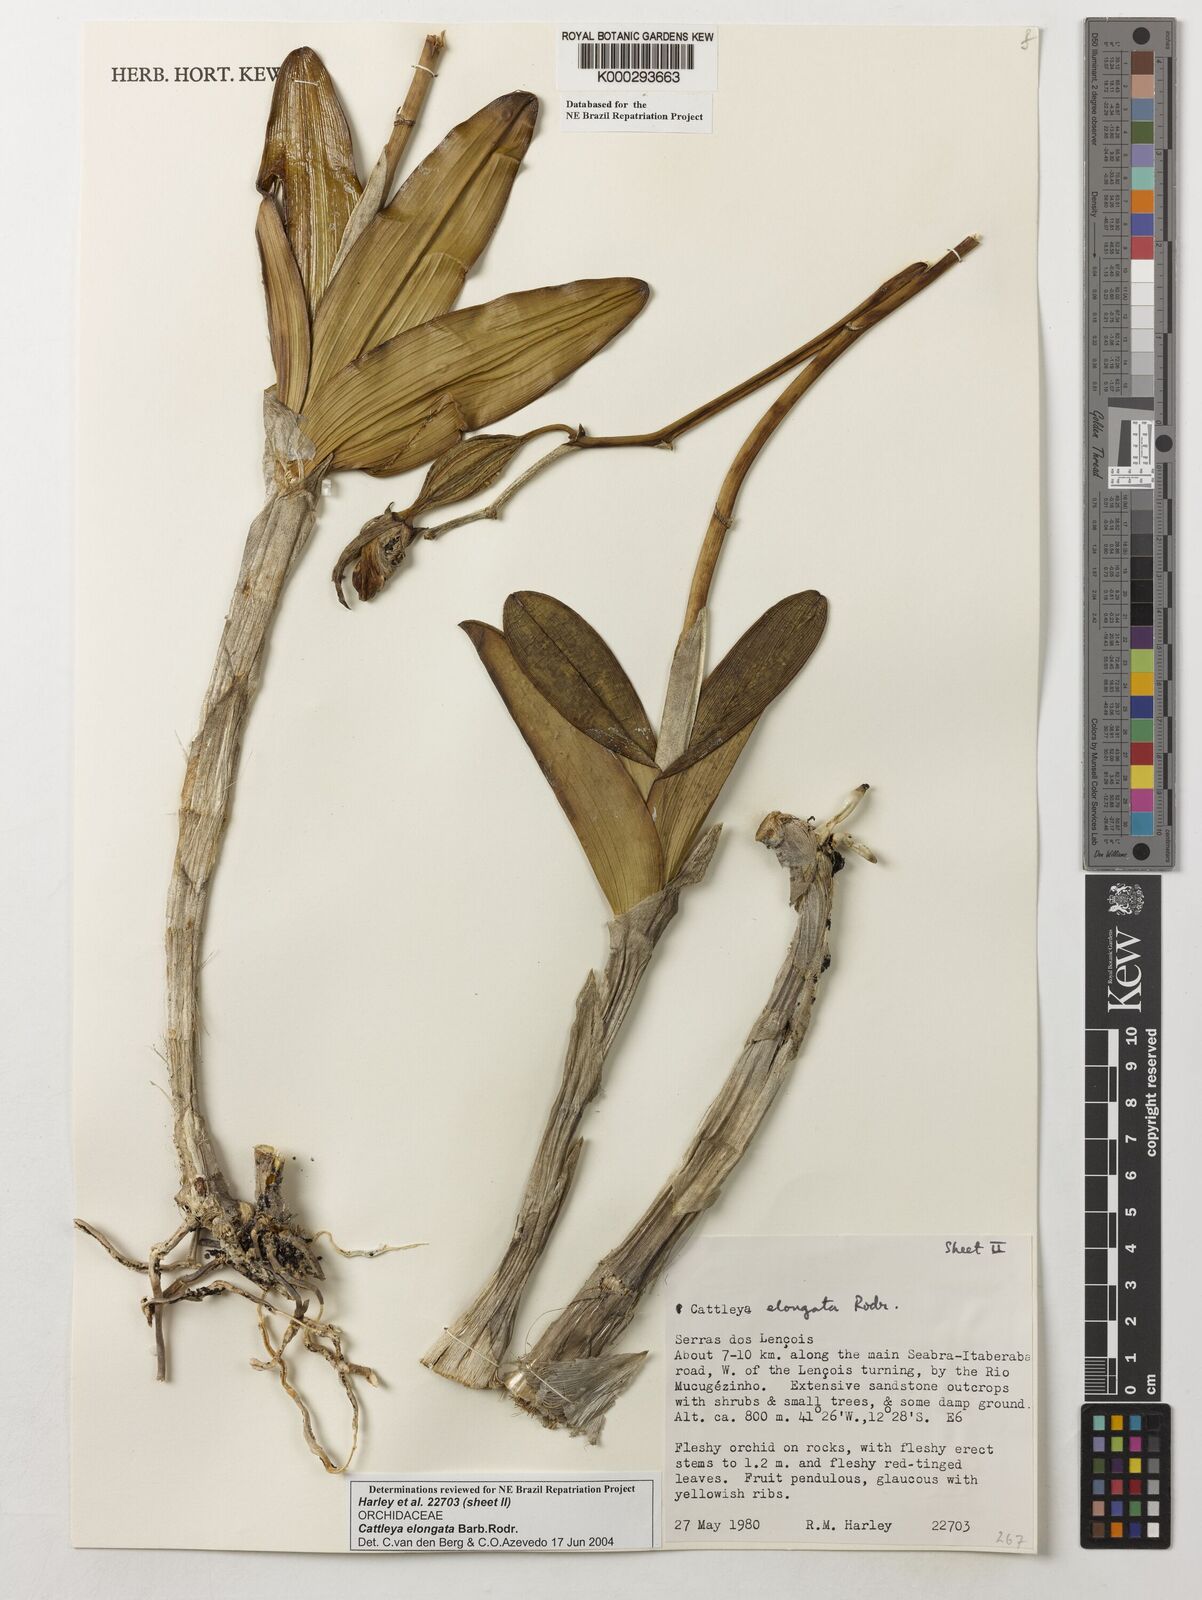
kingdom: Plantae
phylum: Tracheophyta
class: Liliopsida
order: Asparagales
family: Orchidaceae
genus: Cattleya
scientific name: Cattleya elongata
